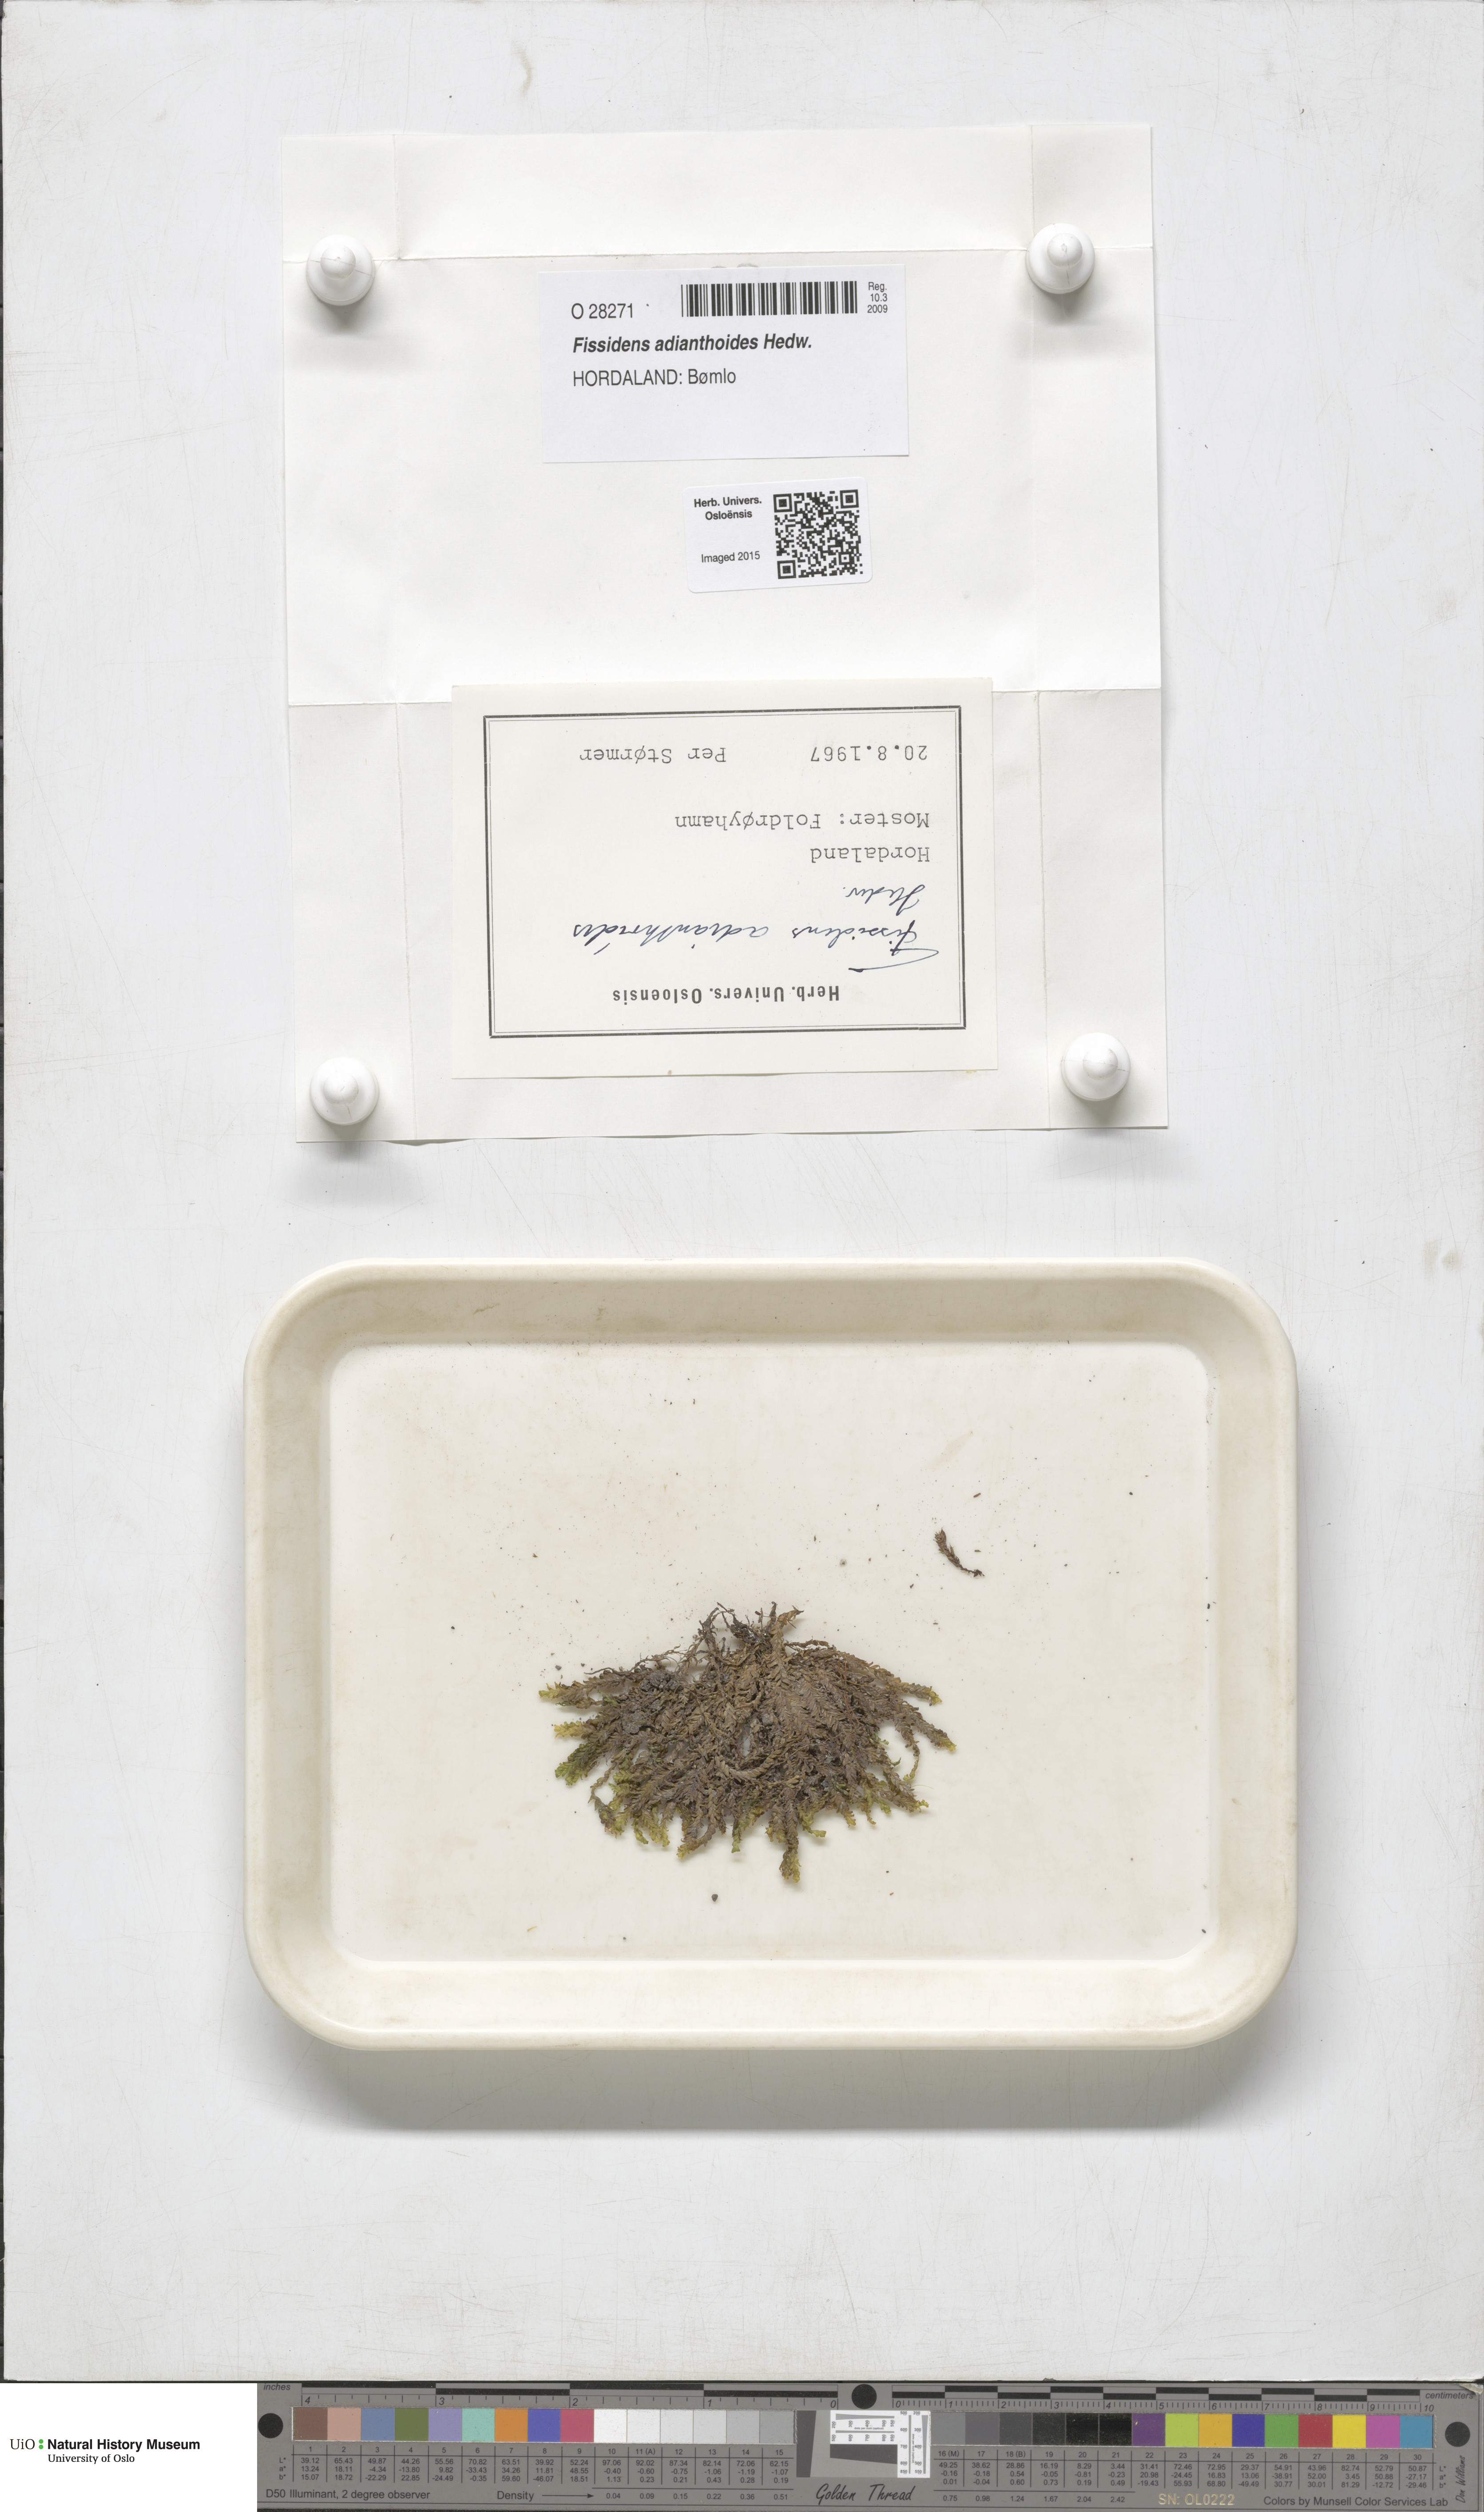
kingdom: Plantae
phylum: Bryophyta
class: Bryopsida
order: Dicranales
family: Fissidentaceae
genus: Fissidens
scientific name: Fissidens adianthoides
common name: Maidenhair pocket moss
